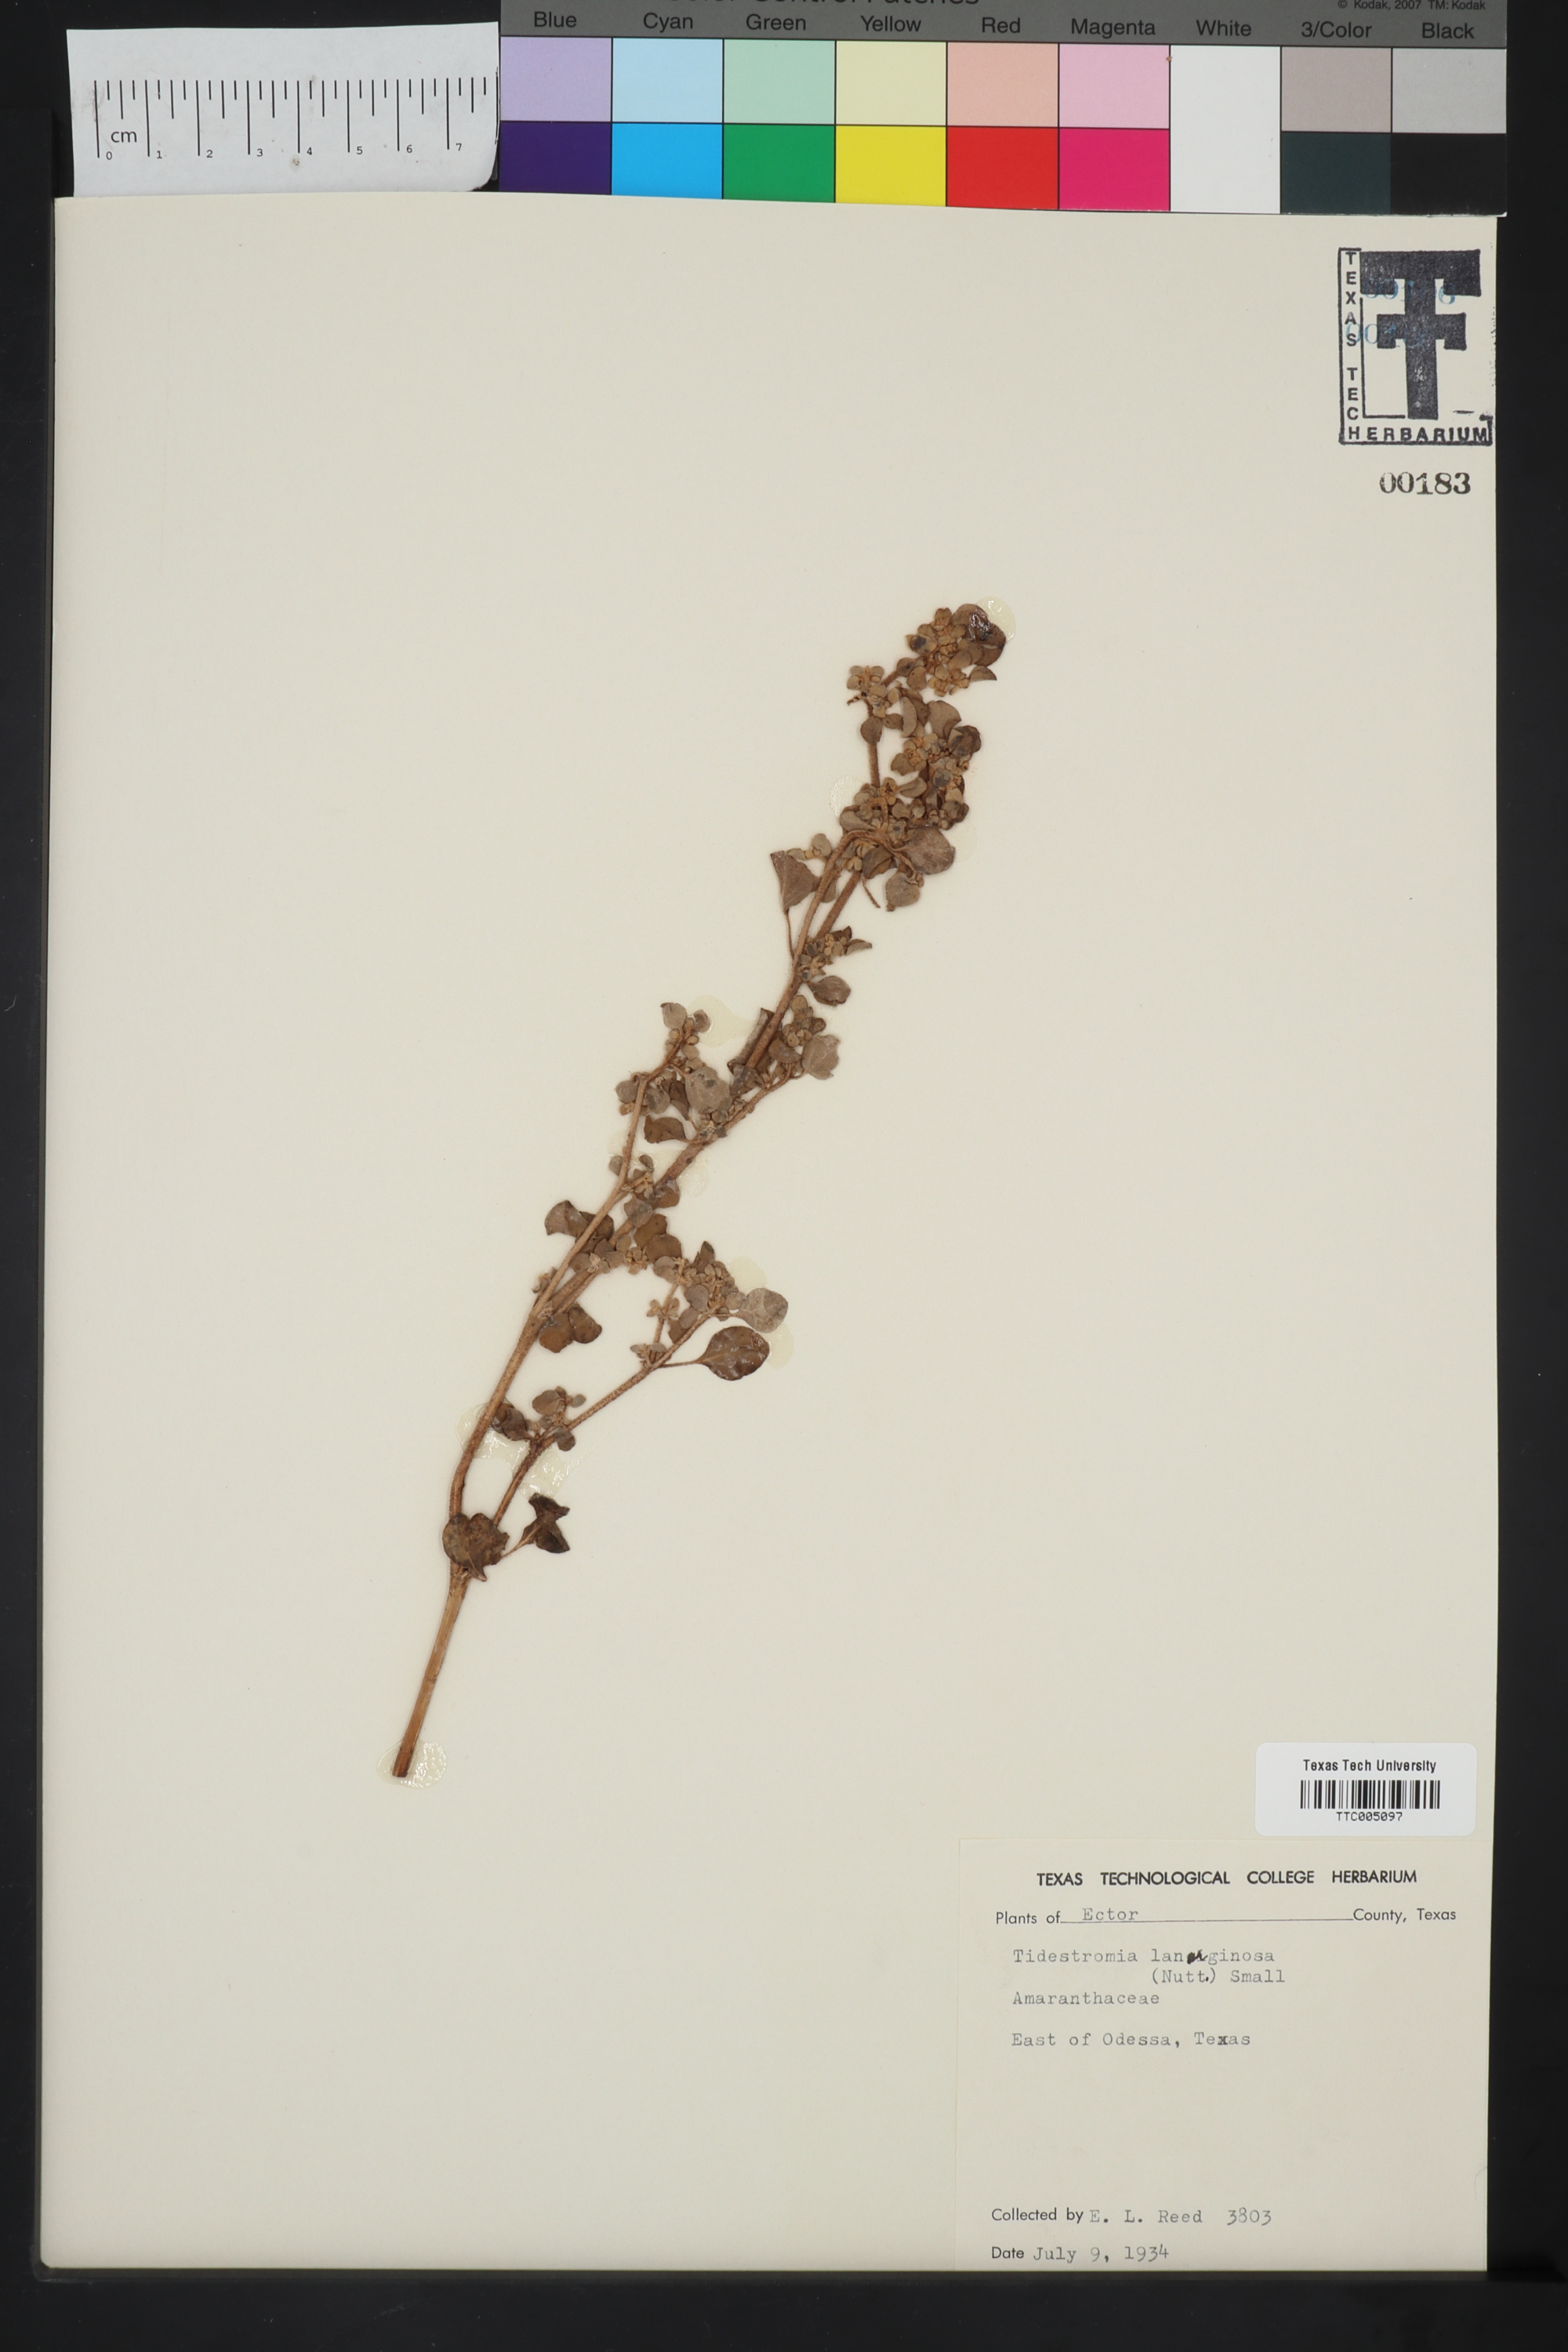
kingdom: Plantae
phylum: Tracheophyta
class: Magnoliopsida
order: Caryophyllales
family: Amaranthaceae
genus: Tidestromia
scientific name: Tidestromia lanuginosa
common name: Woolly tidestromia
